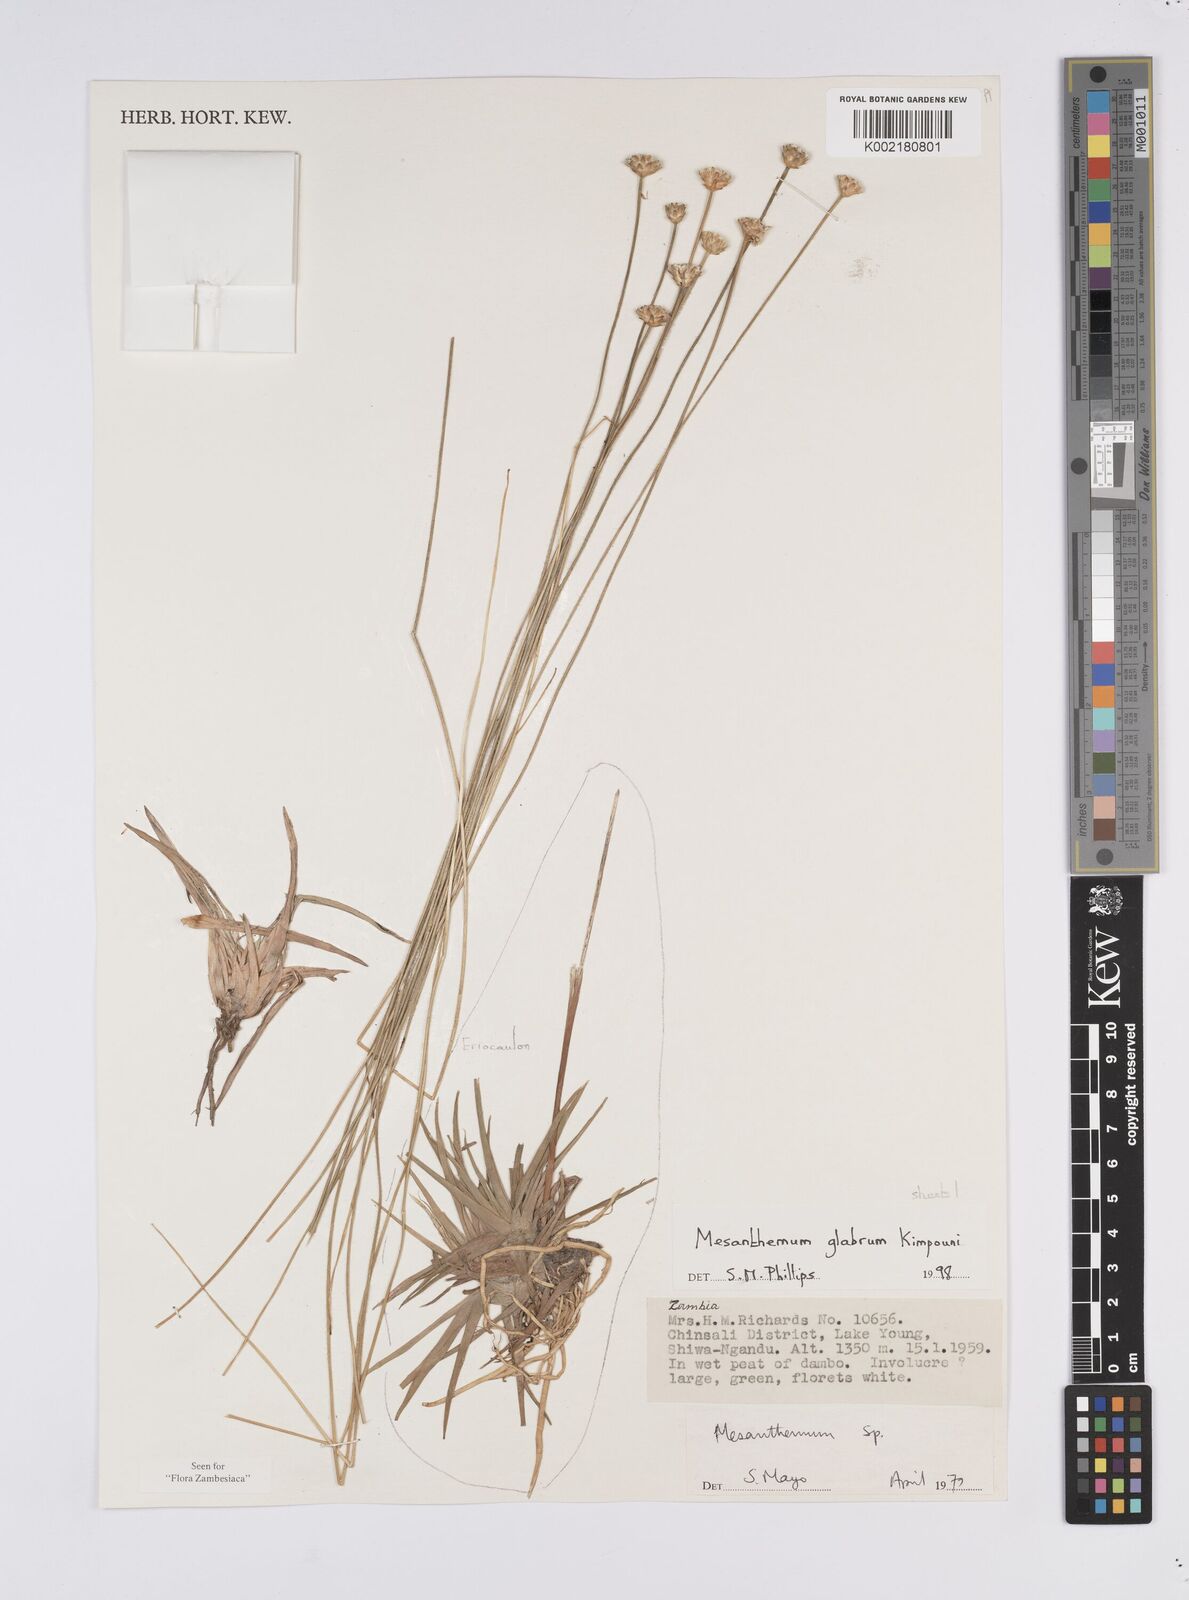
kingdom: Plantae
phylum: Tracheophyta
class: Liliopsida
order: Poales
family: Eriocaulaceae
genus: Mesanthemum
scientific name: Mesanthemum glabrum
